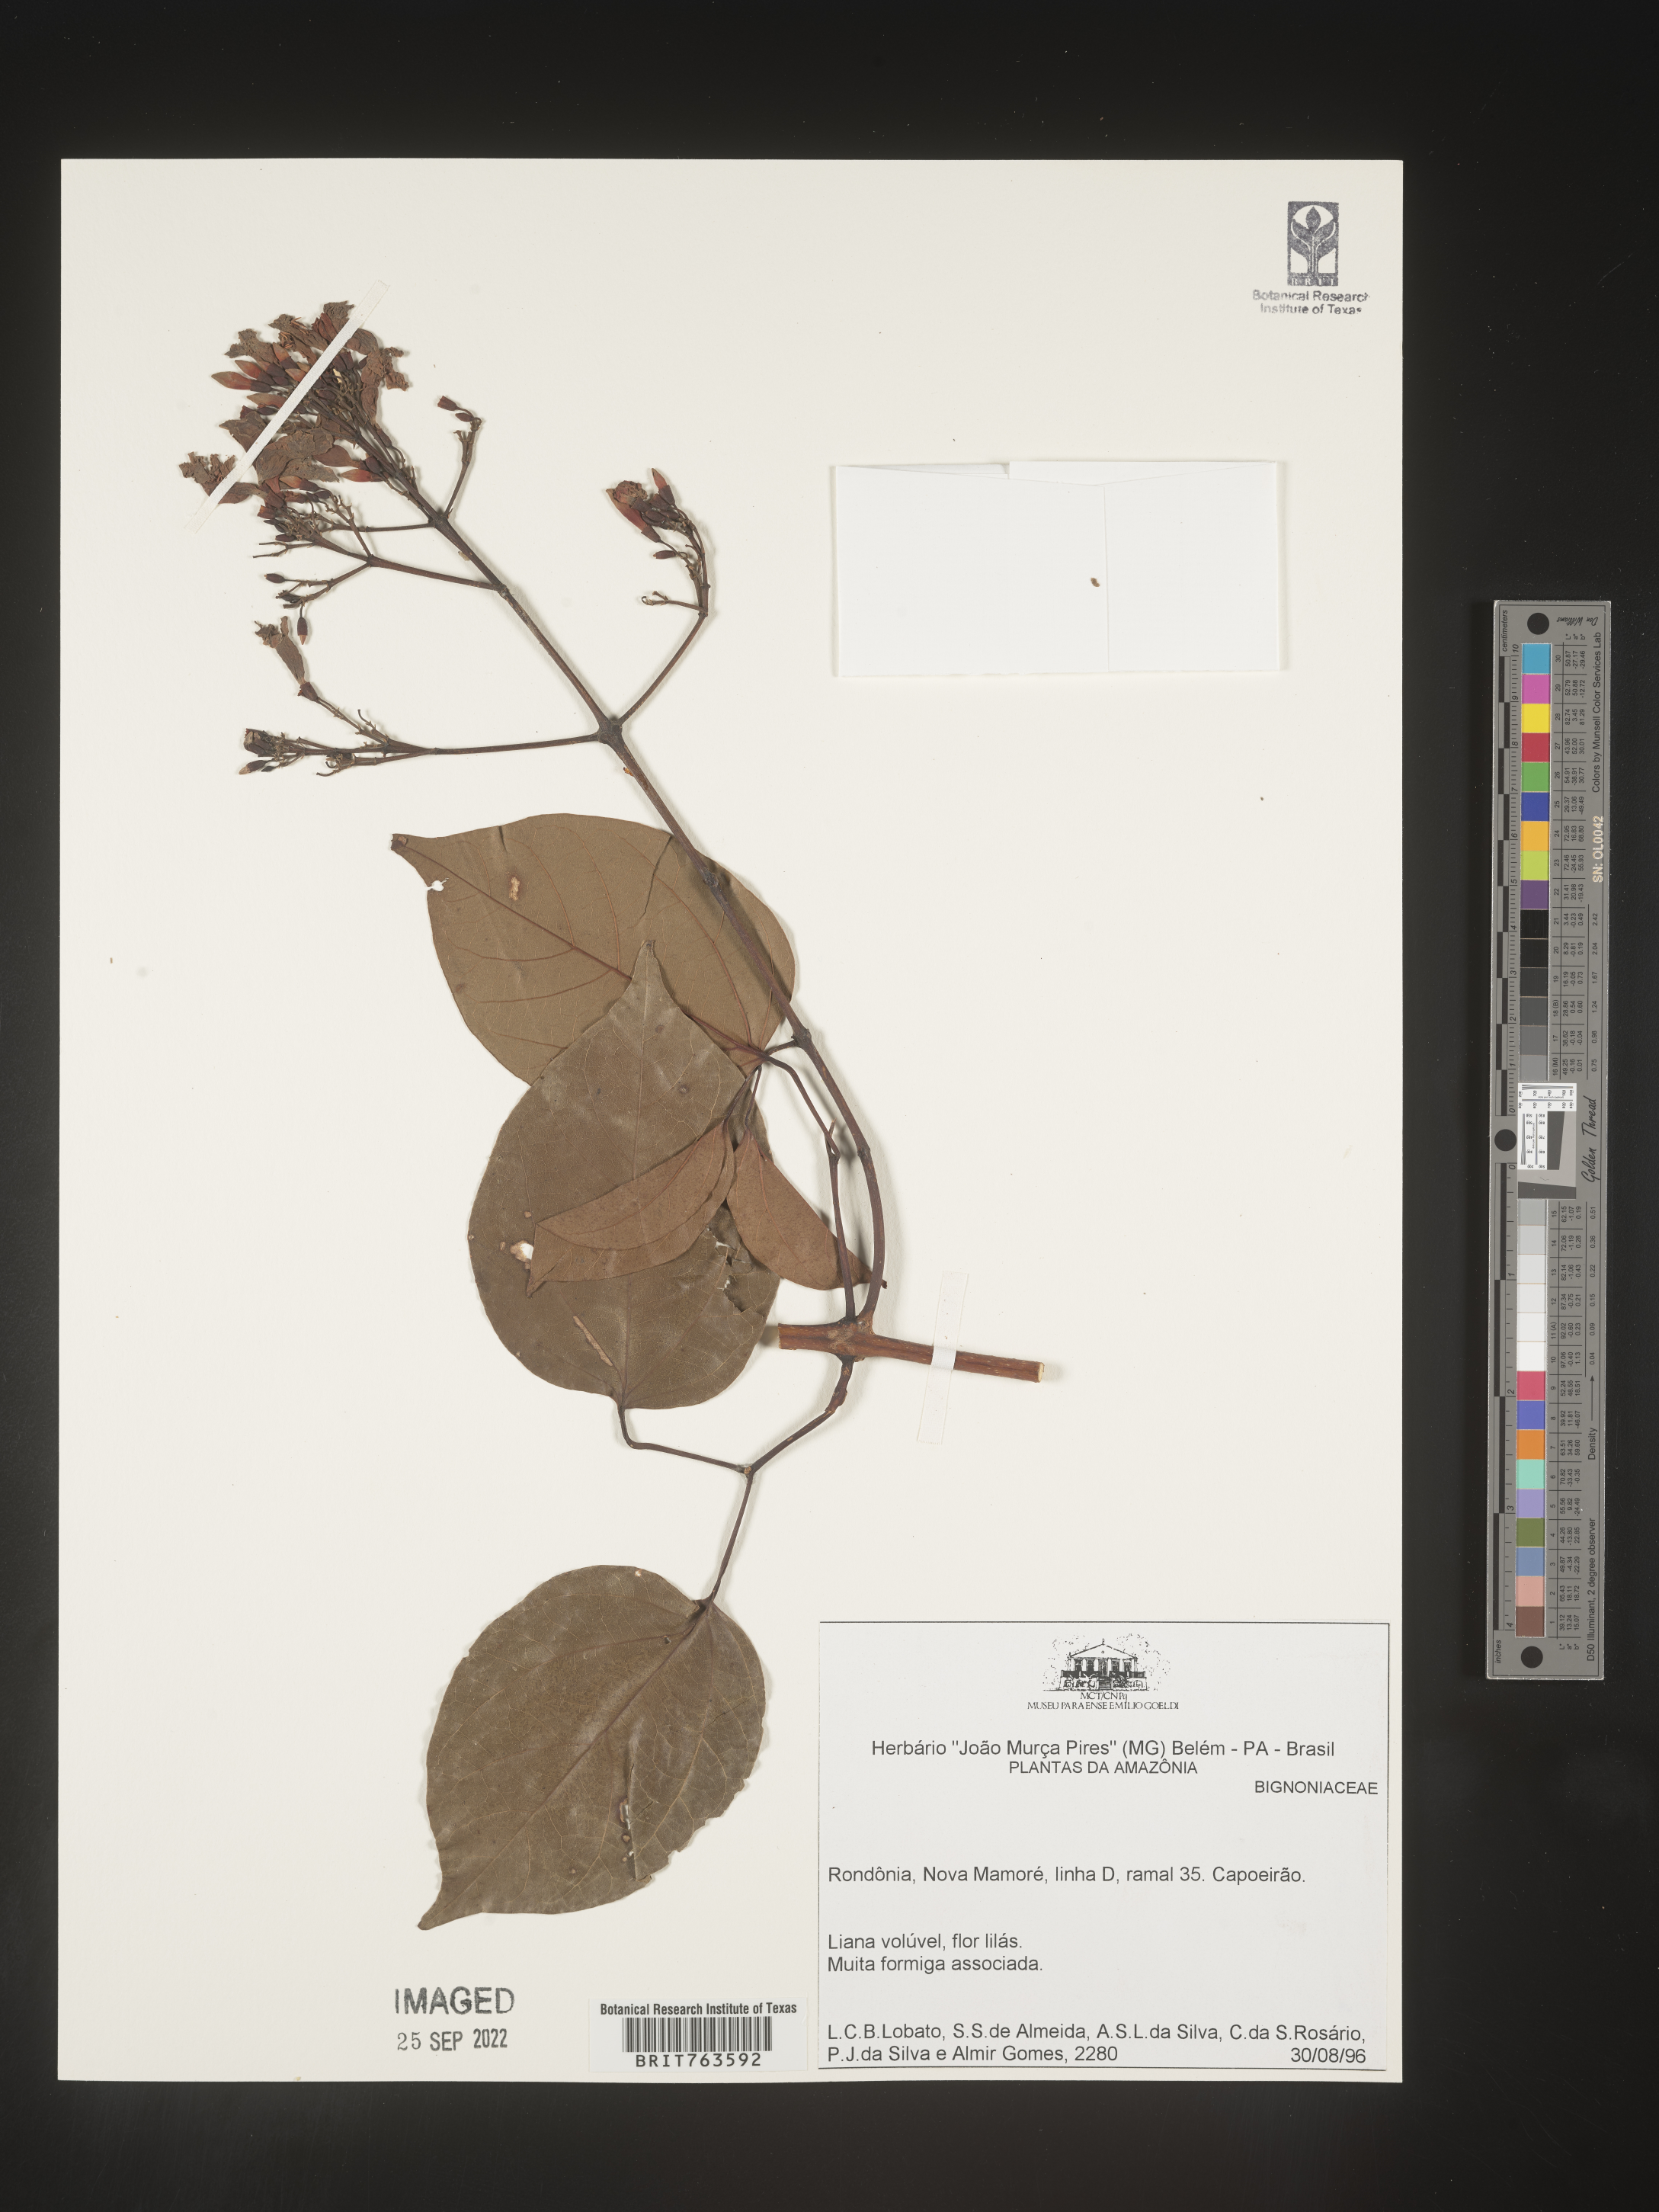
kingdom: Plantae
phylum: Tracheophyta
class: Magnoliopsida
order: Lamiales
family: Bignoniaceae
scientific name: Bignoniaceae
